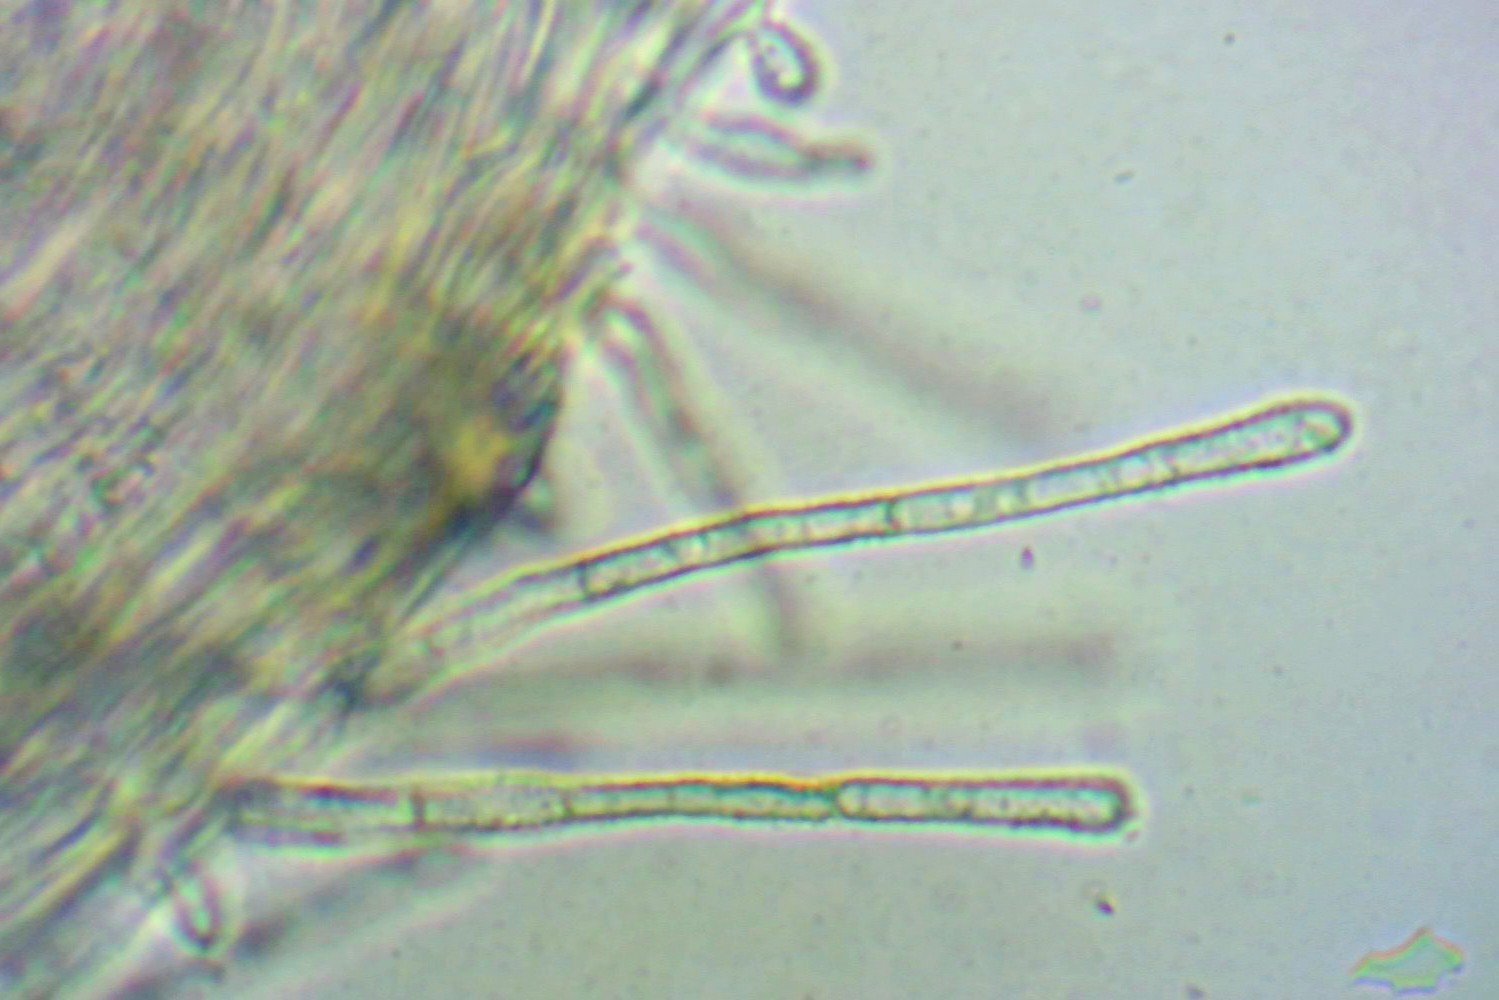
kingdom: Fungi
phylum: Ascomycota
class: Leotiomycetes
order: Helotiales
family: Lachnaceae
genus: Lachnum
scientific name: Lachnum impudicum
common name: vinter-frynseskive
